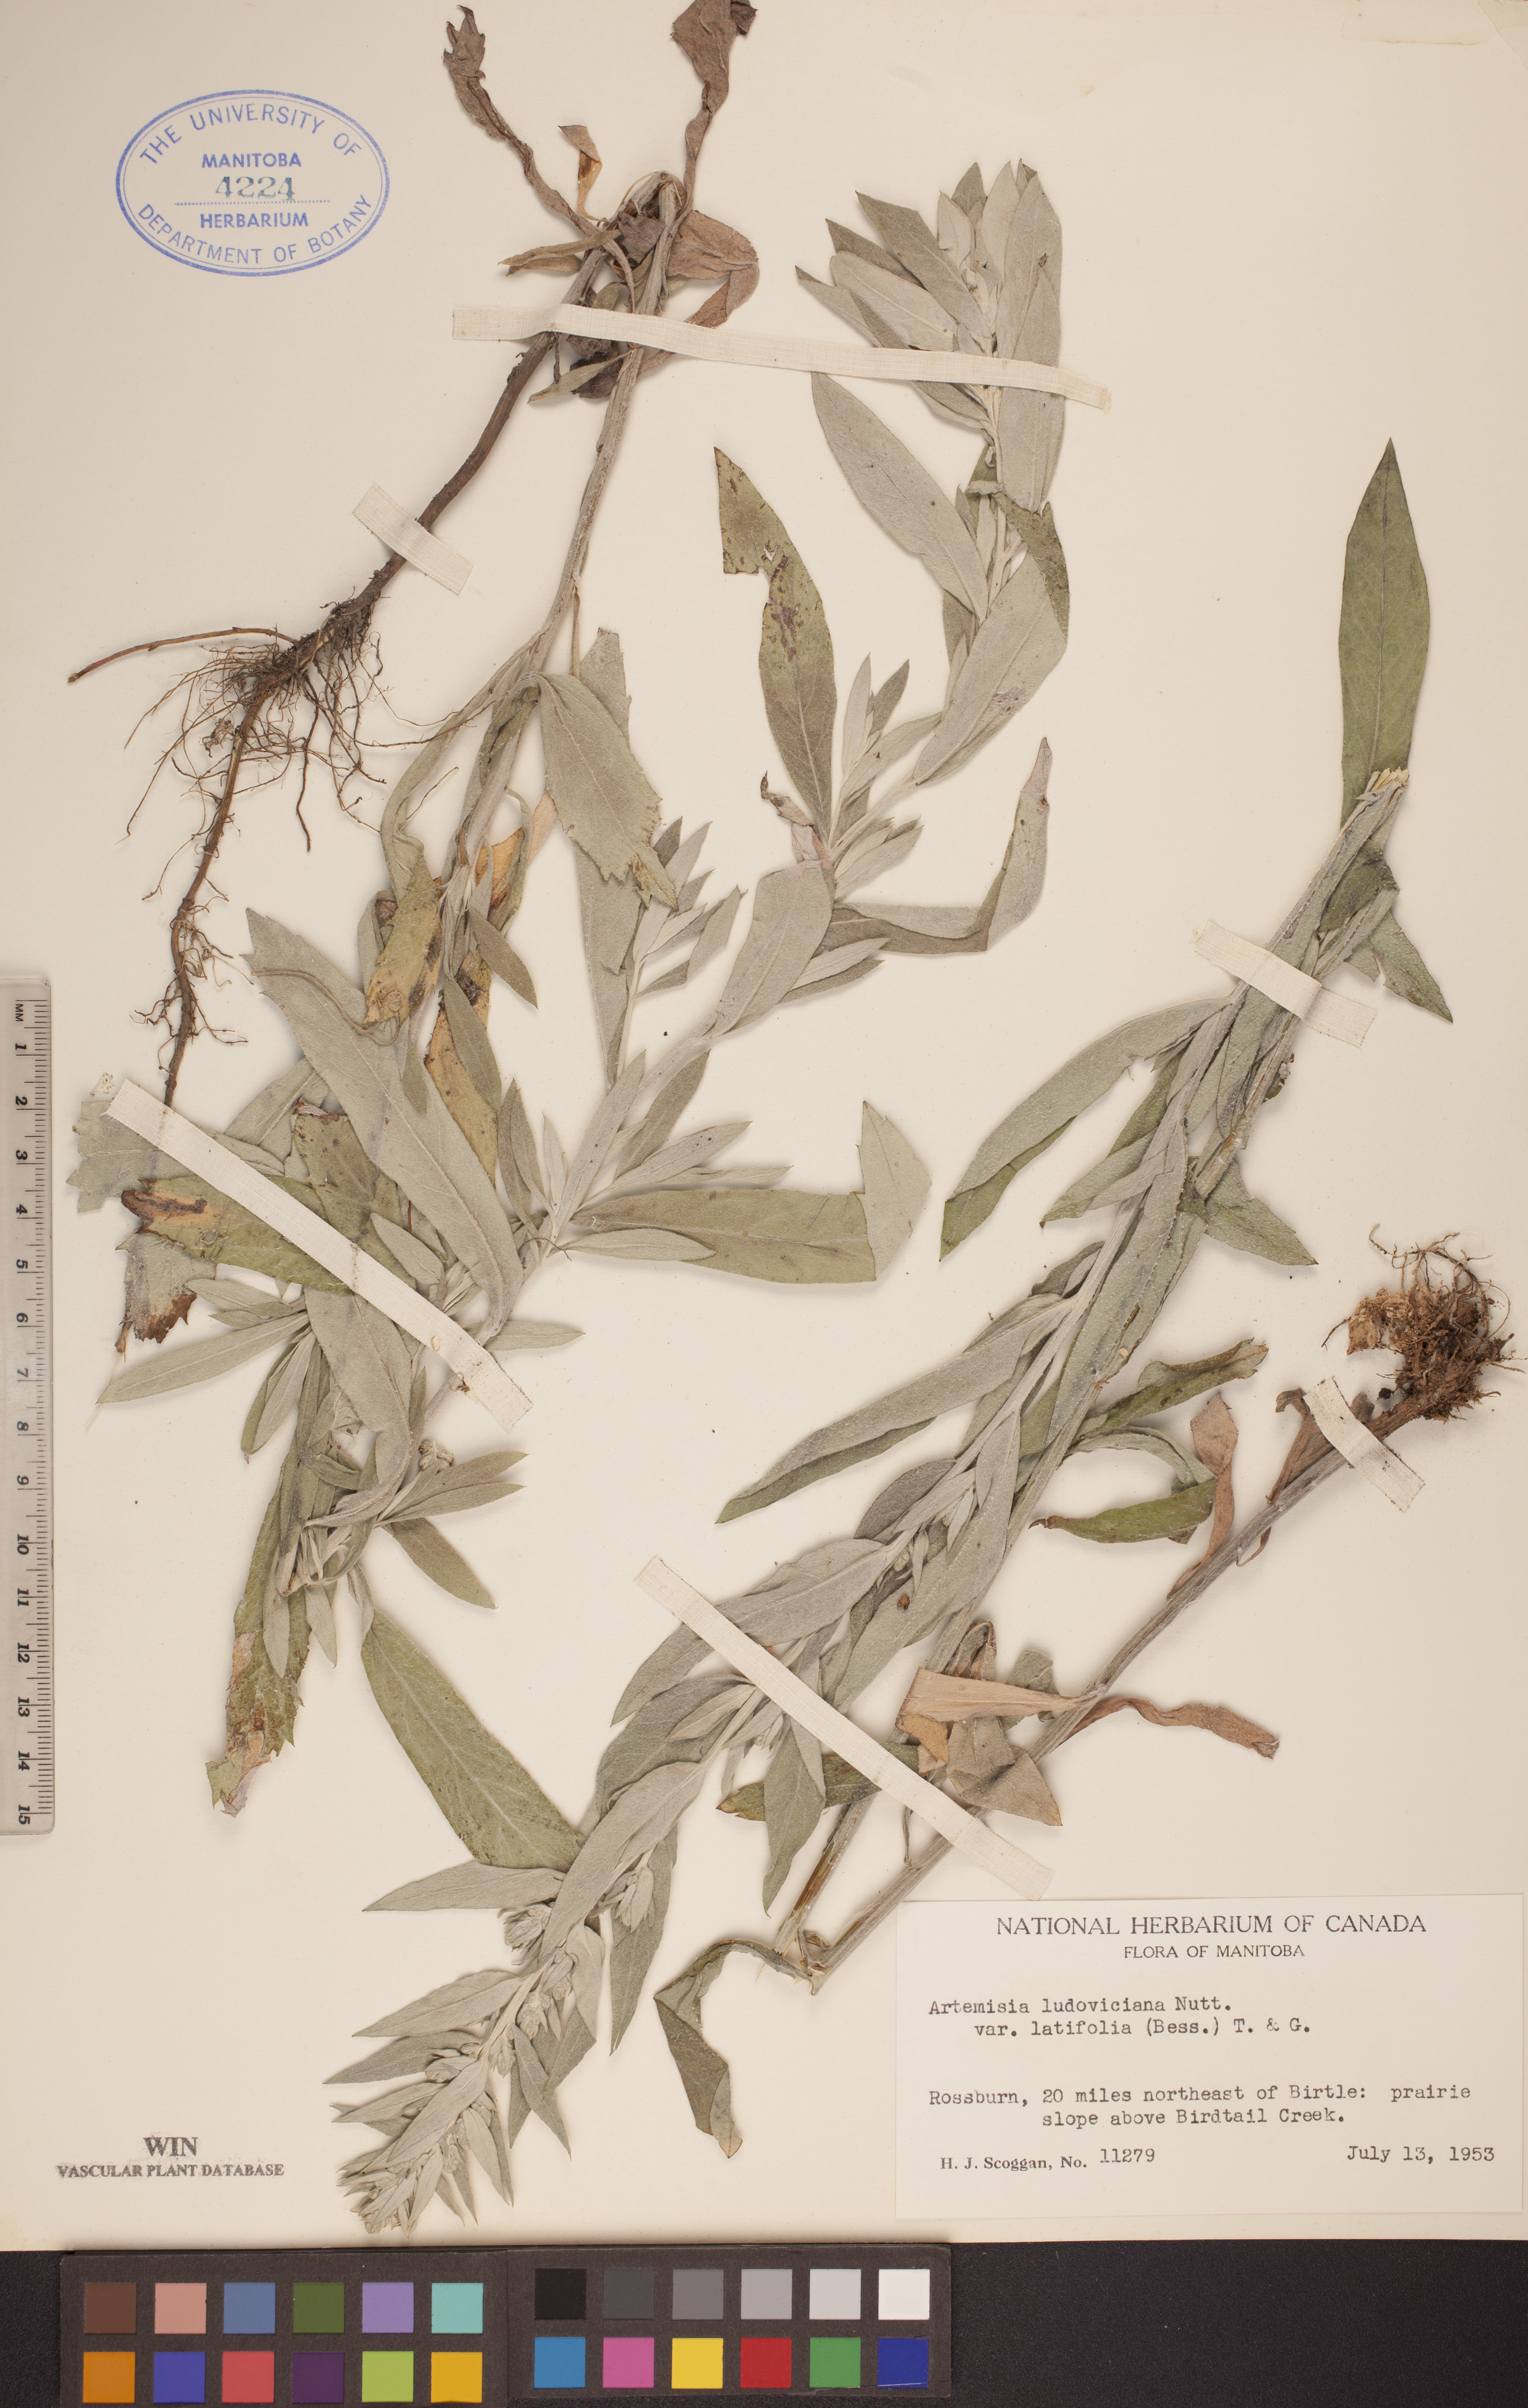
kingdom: Plantae
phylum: Tracheophyta
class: Magnoliopsida
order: Asterales
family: Asteraceae
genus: Artemisia
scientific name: Artemisia ludoviciana
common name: Western mugwort
